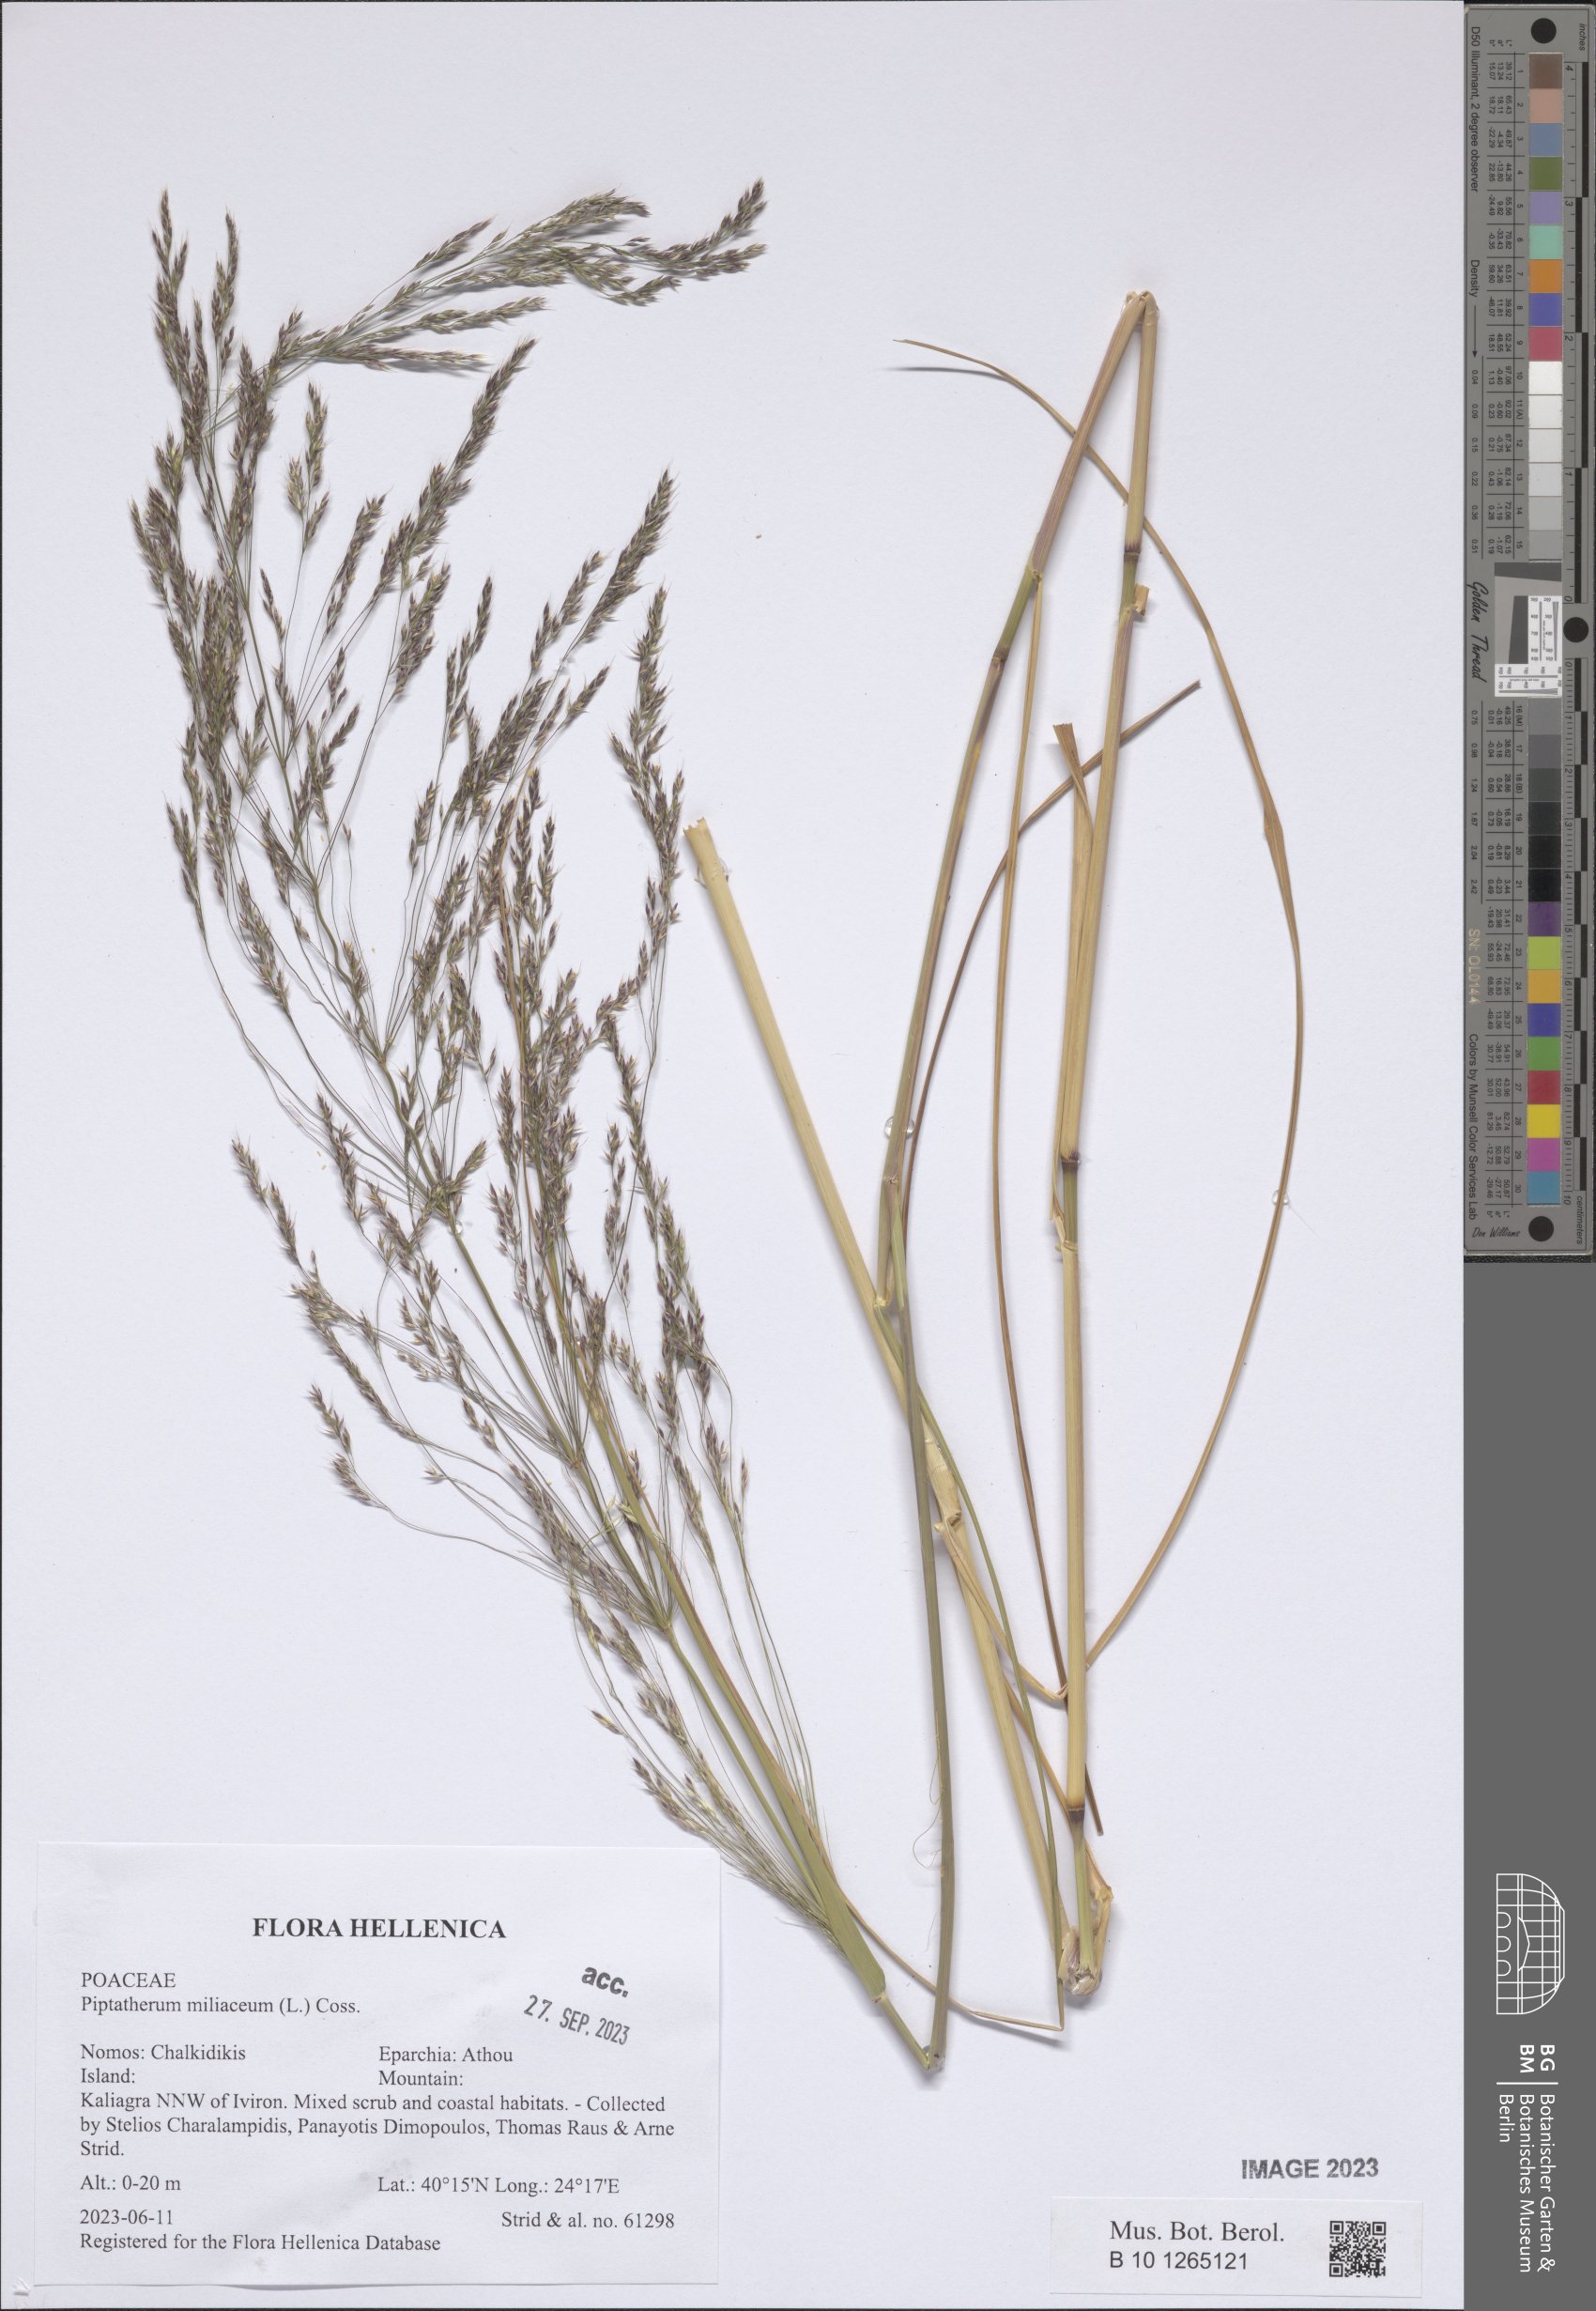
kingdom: Plantae
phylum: Tracheophyta
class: Liliopsida
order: Poales
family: Poaceae
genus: Oloptum
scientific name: Oloptum miliaceum
